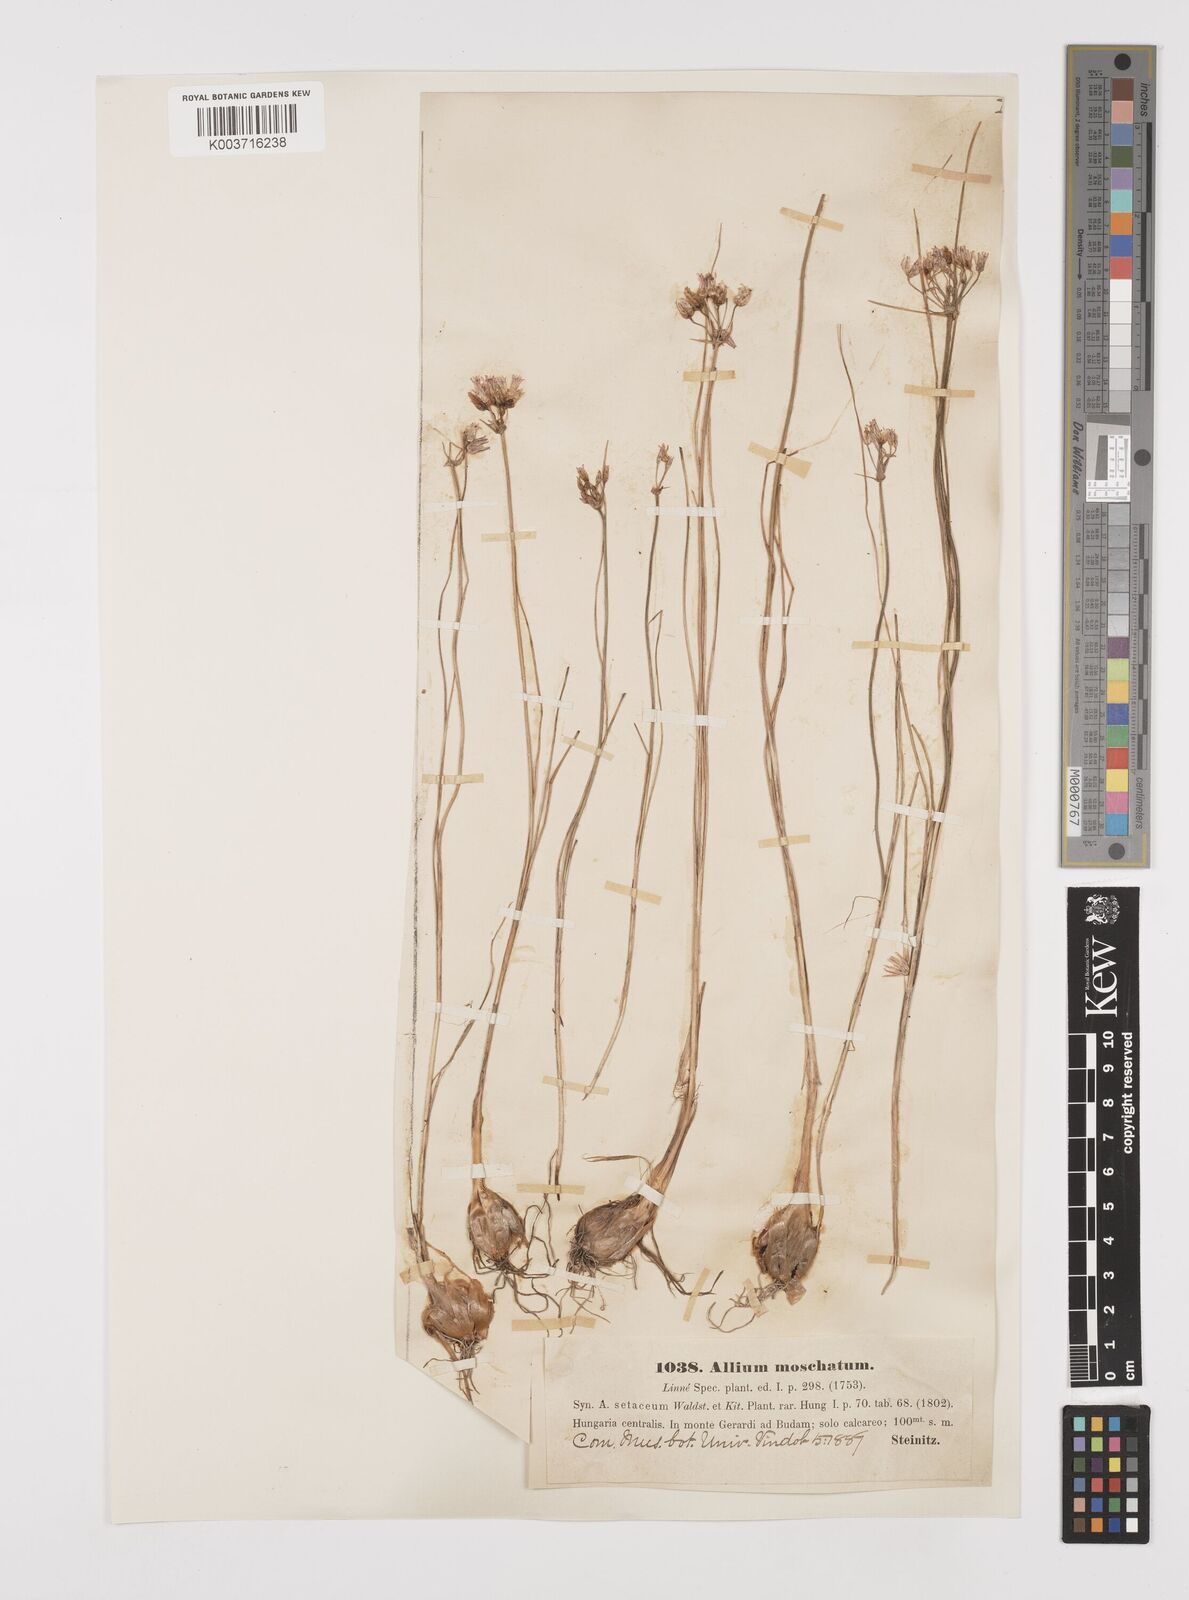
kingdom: Plantae
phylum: Tracheophyta
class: Liliopsida
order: Asparagales
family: Amaryllidaceae
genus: Allium
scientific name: Allium moschatum
